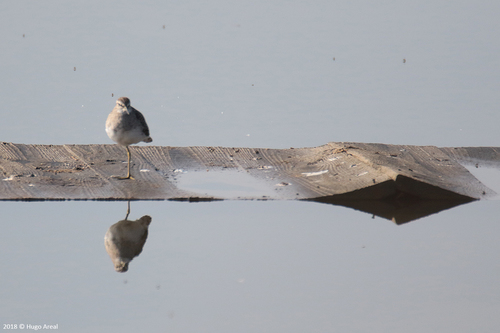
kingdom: Animalia
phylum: Chordata
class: Aves
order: Charadriiformes
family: Scolopacidae
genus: Tringa
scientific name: Tringa glareola
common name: Wood sandpiper
